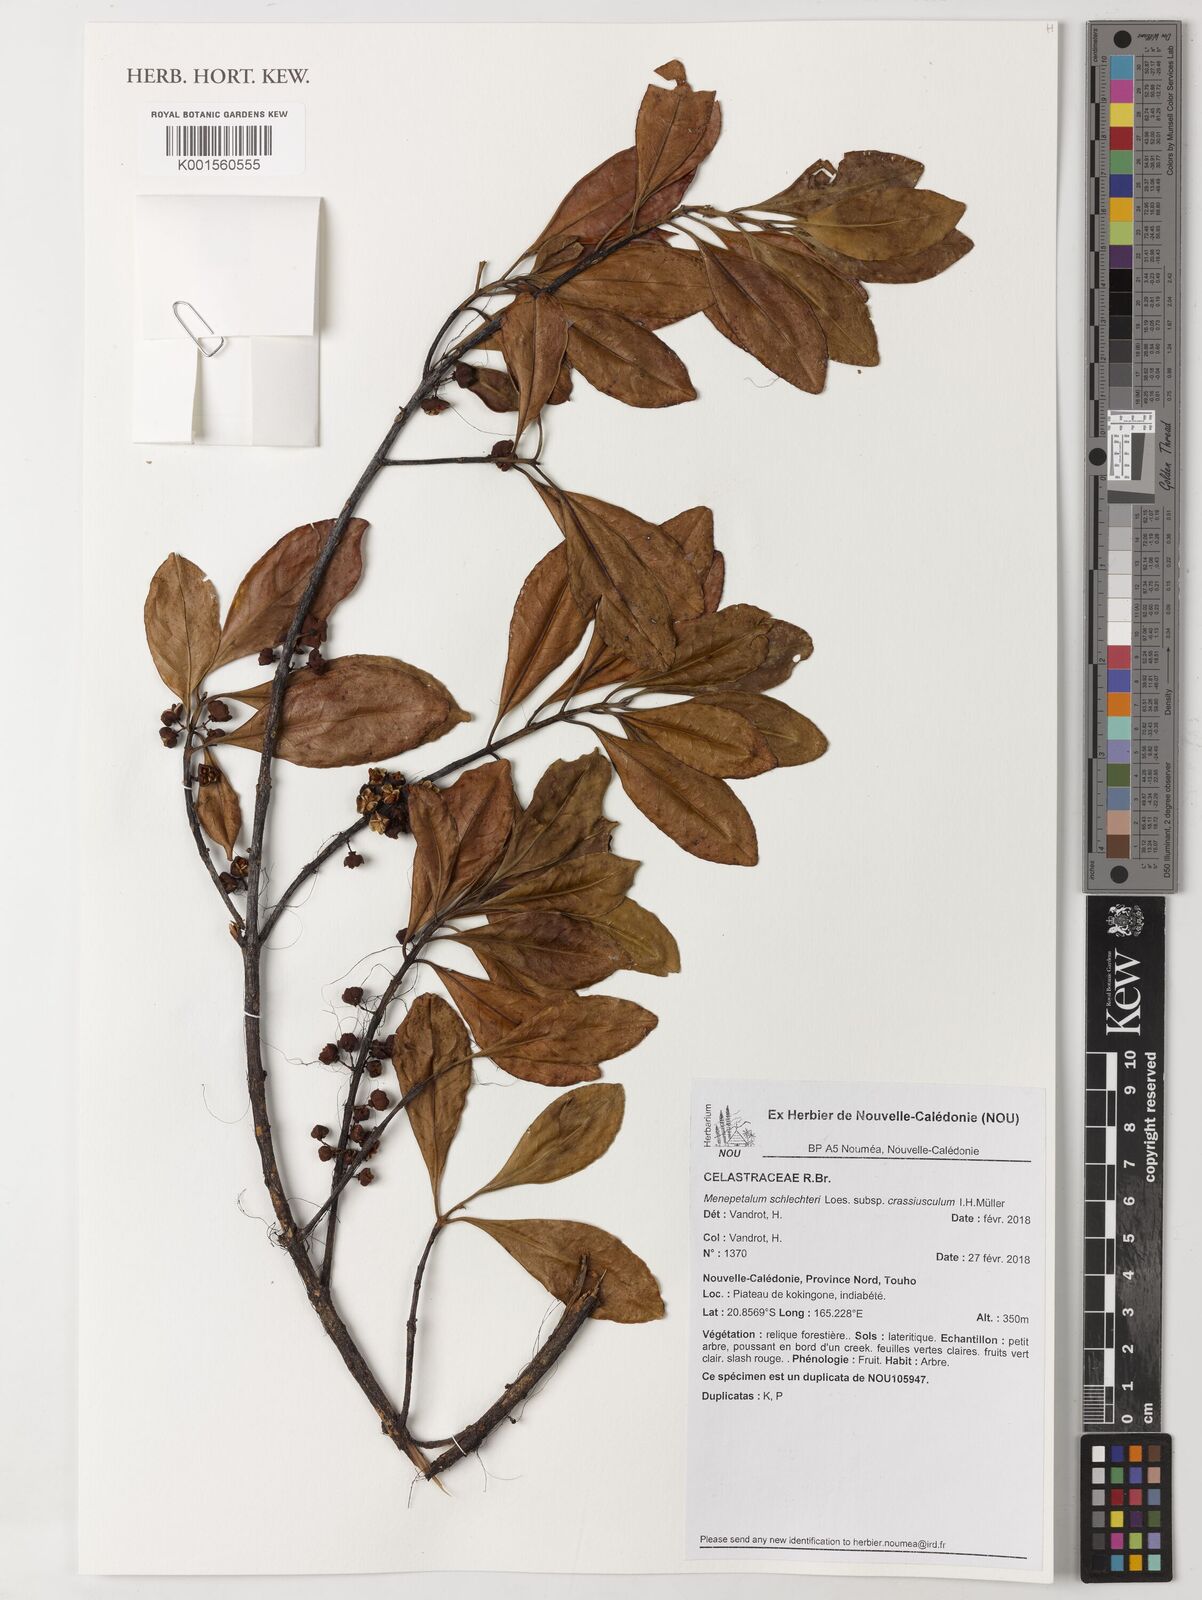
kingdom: Plantae
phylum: Tracheophyta
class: Magnoliopsida
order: Celastrales
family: Celastraceae
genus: Menepetalum
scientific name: Menepetalum schlechteri
